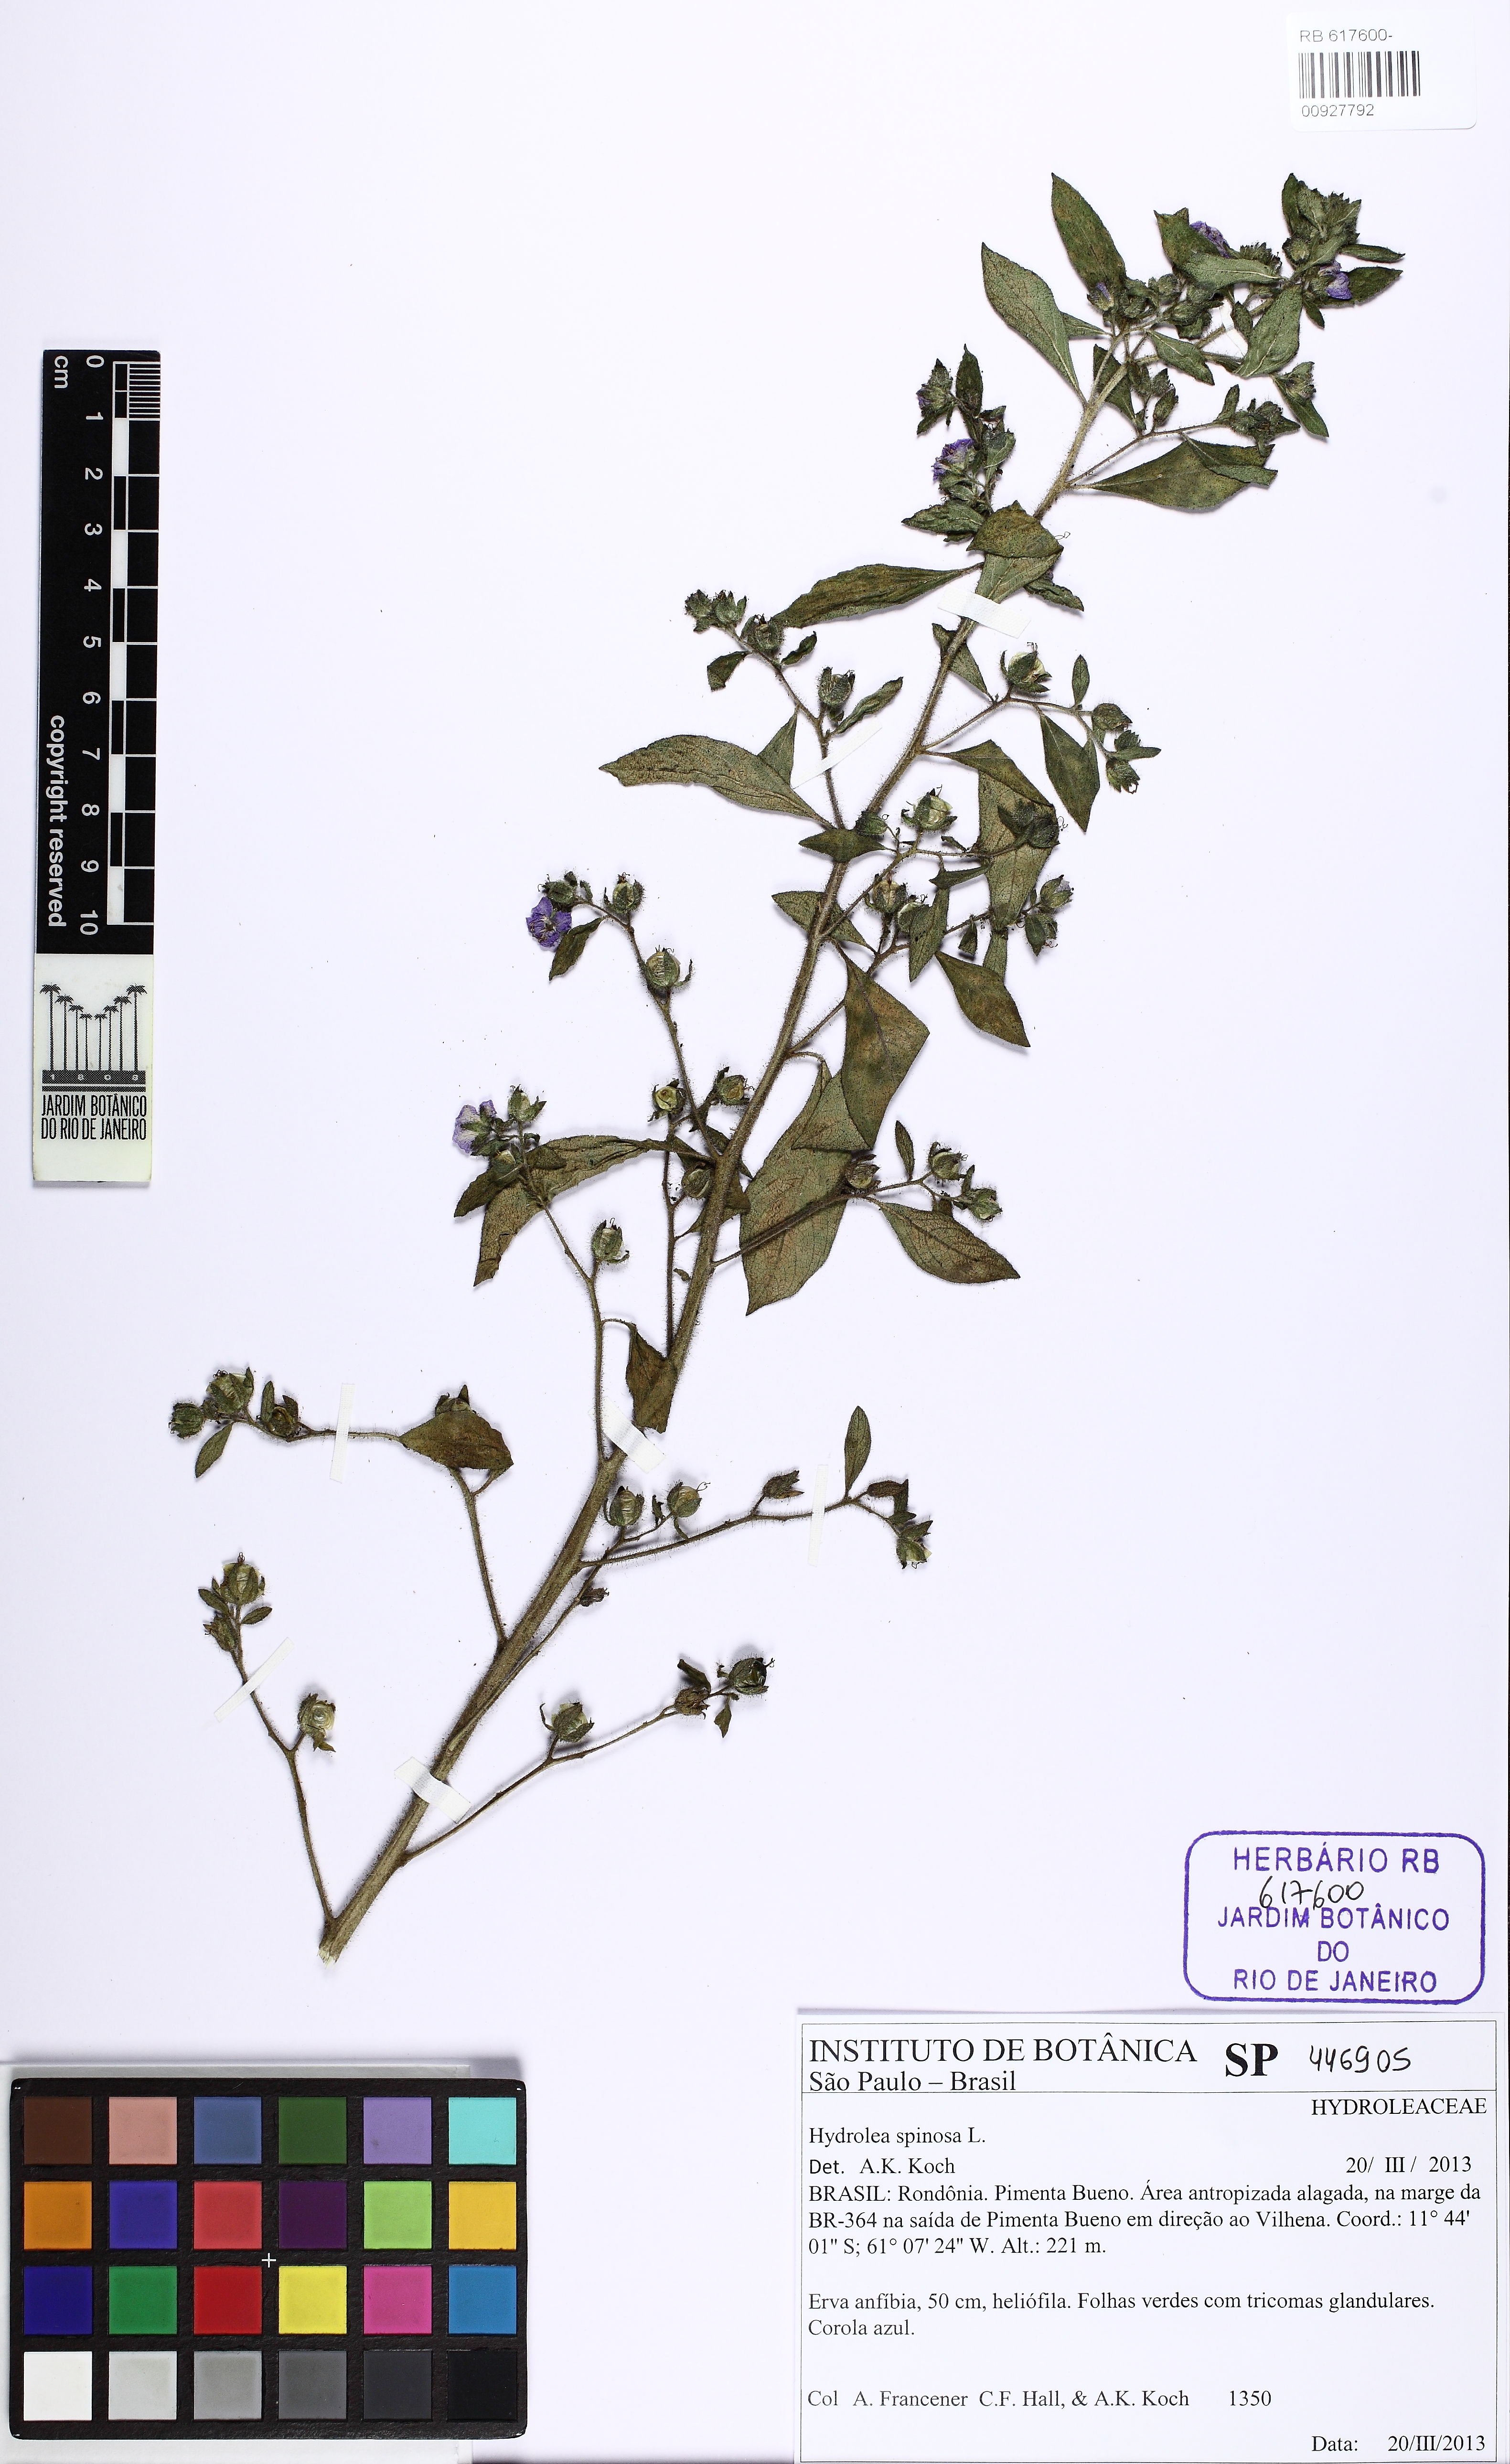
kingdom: Plantae
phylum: Tracheophyta
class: Magnoliopsida
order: Solanales
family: Hydroleaceae
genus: Hydrolea
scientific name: Hydrolea spinosa
